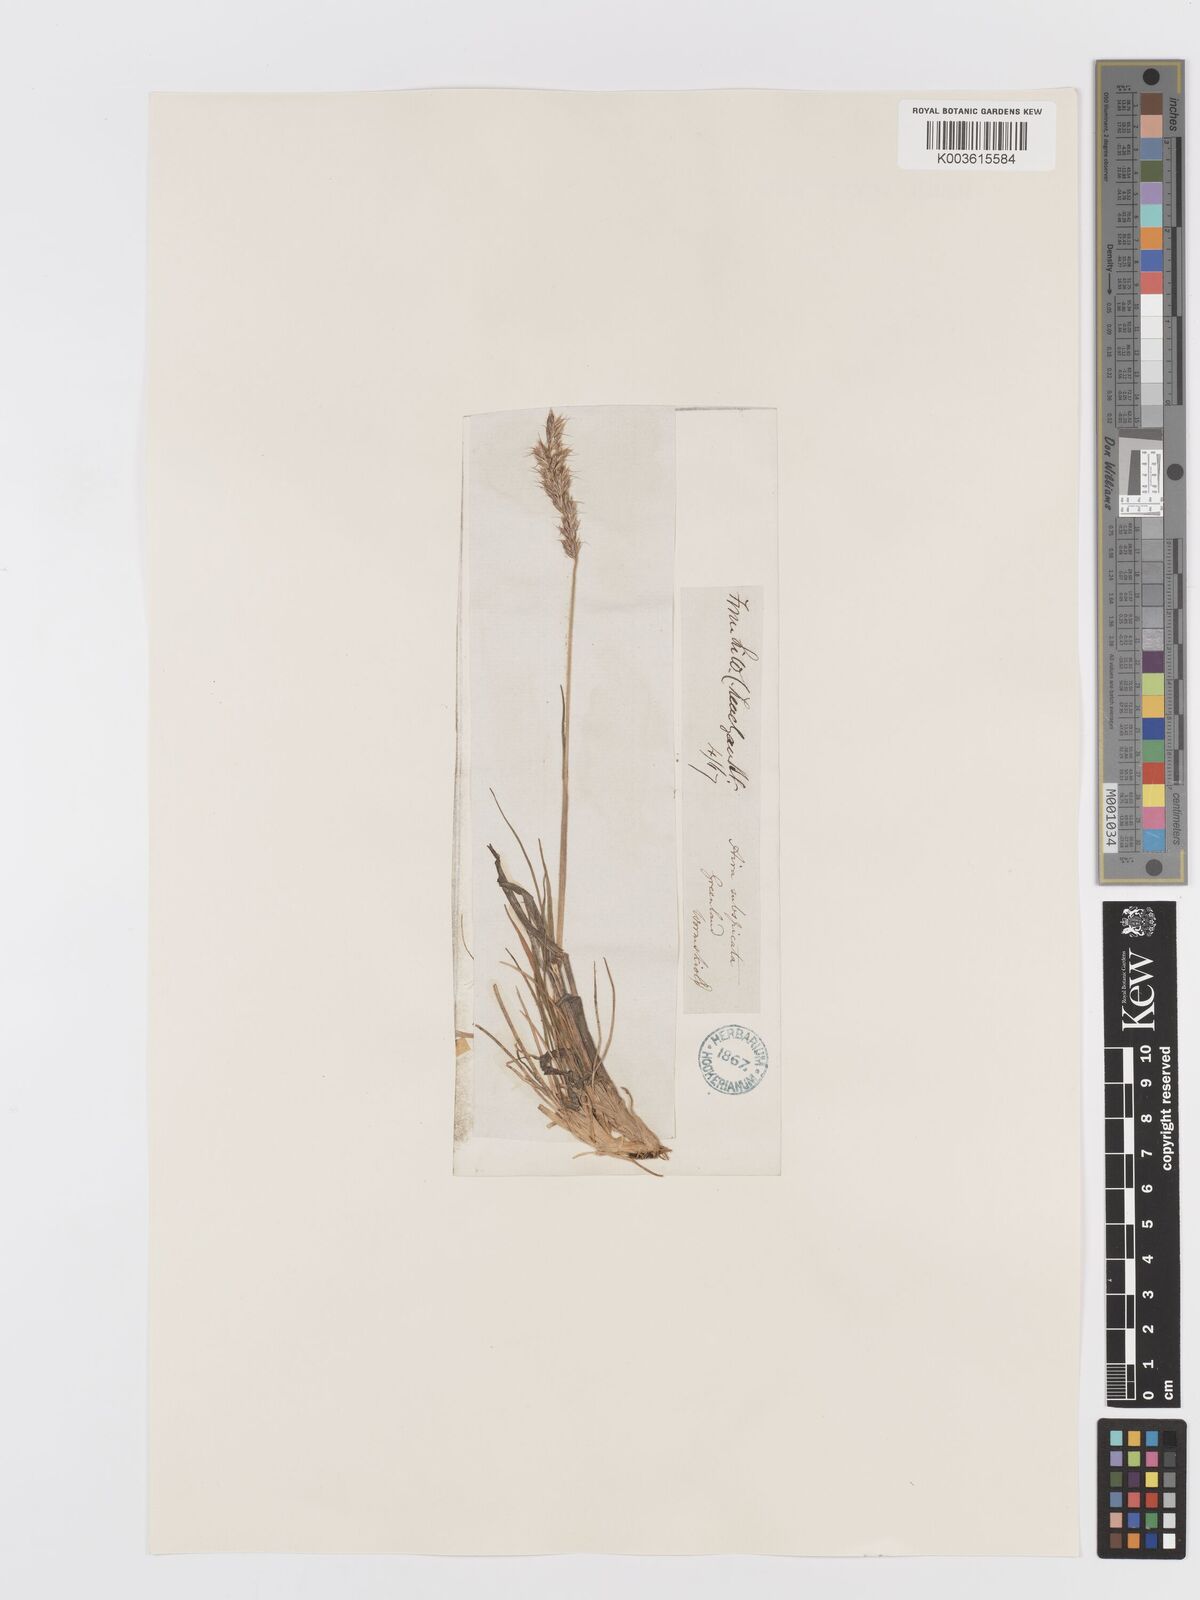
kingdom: Plantae
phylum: Tracheophyta
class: Liliopsida
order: Poales
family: Poaceae
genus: Koeleria
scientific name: Koeleria spicata
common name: Mountain trisetum
